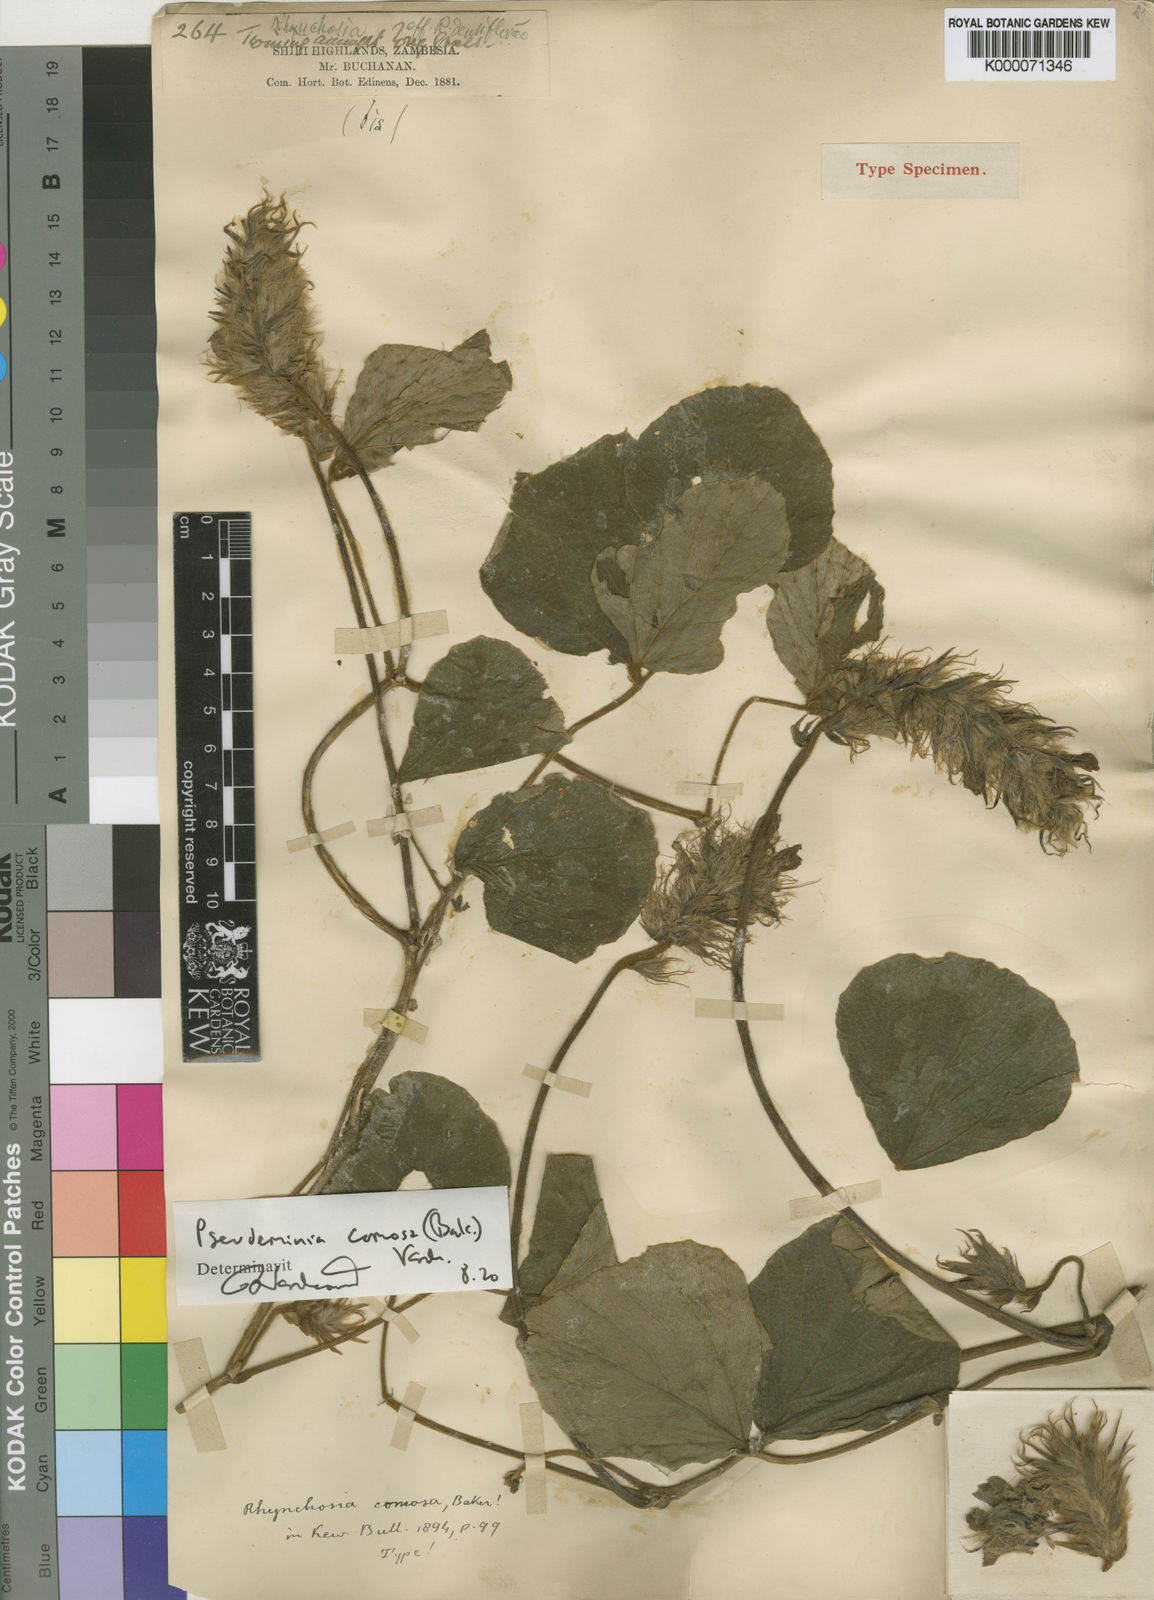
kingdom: Plantae
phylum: Tracheophyta
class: Magnoliopsida
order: Fabales
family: Fabaceae
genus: Pseudeminia
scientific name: Pseudeminia comosa
